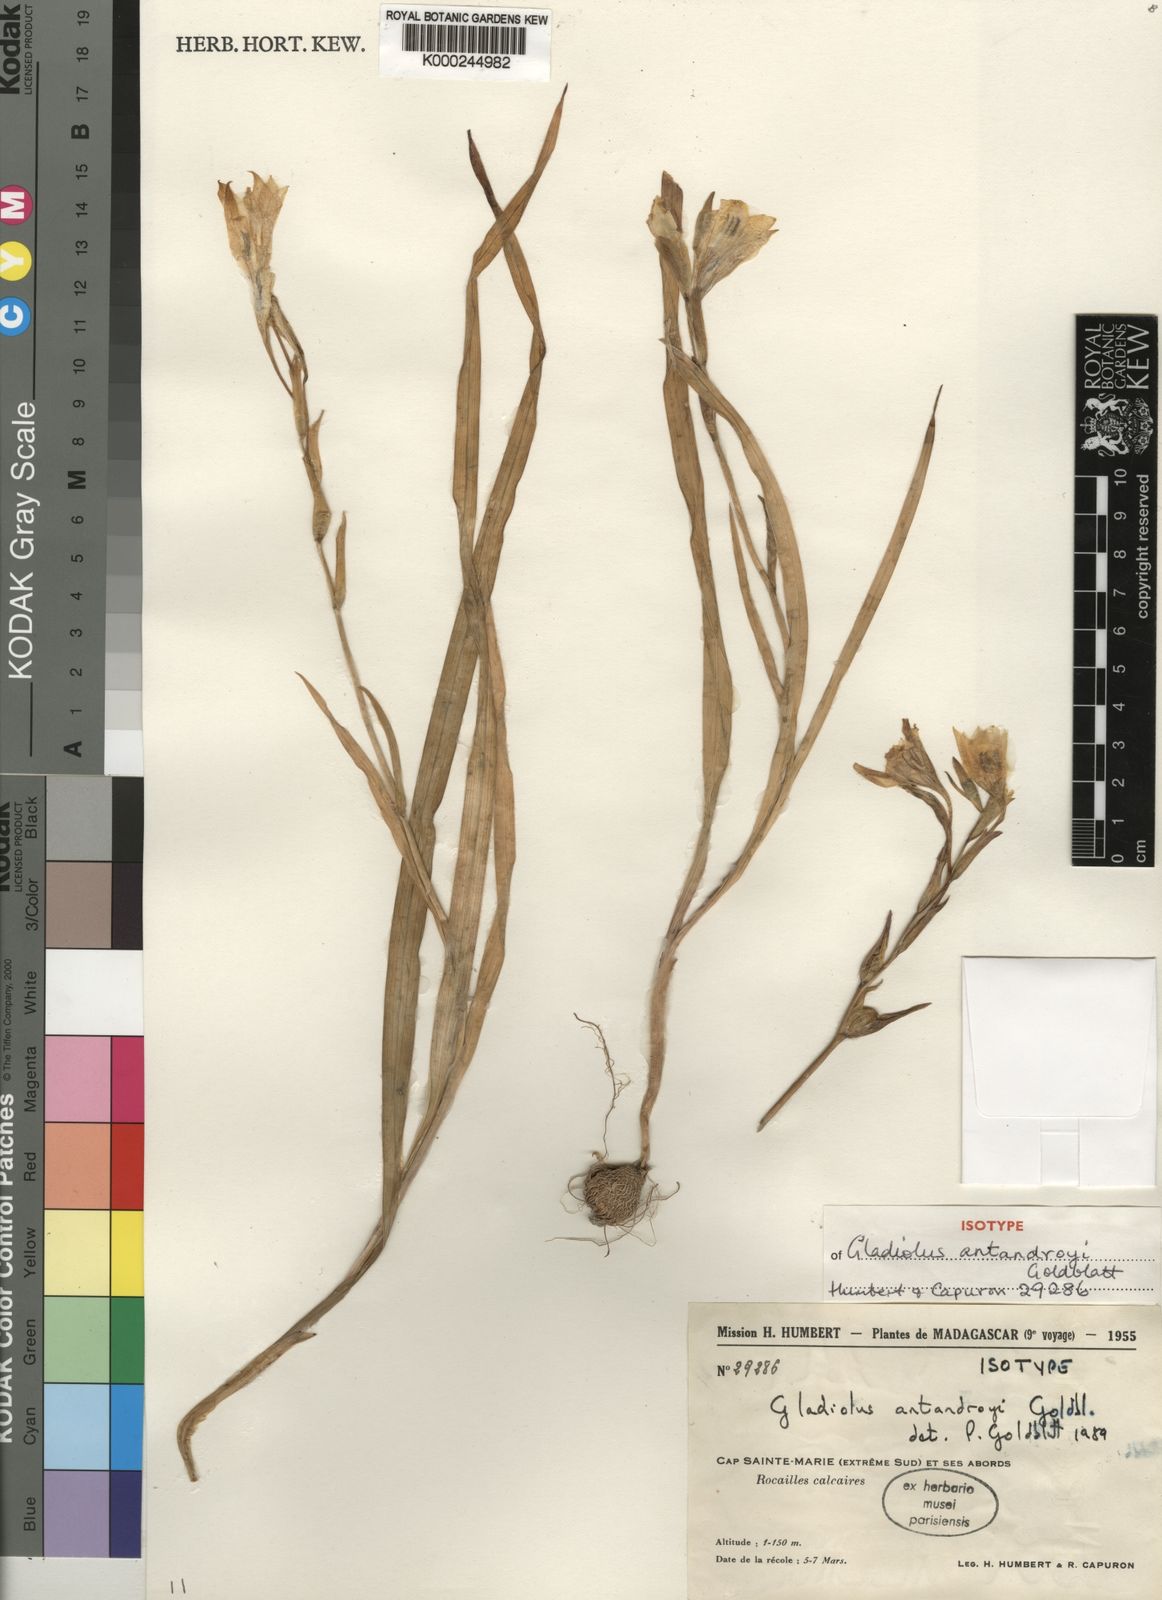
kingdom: Plantae
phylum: Tracheophyta
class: Liliopsida
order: Asparagales
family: Iridaceae
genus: Gladiolus
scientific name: Gladiolus antandroyi
